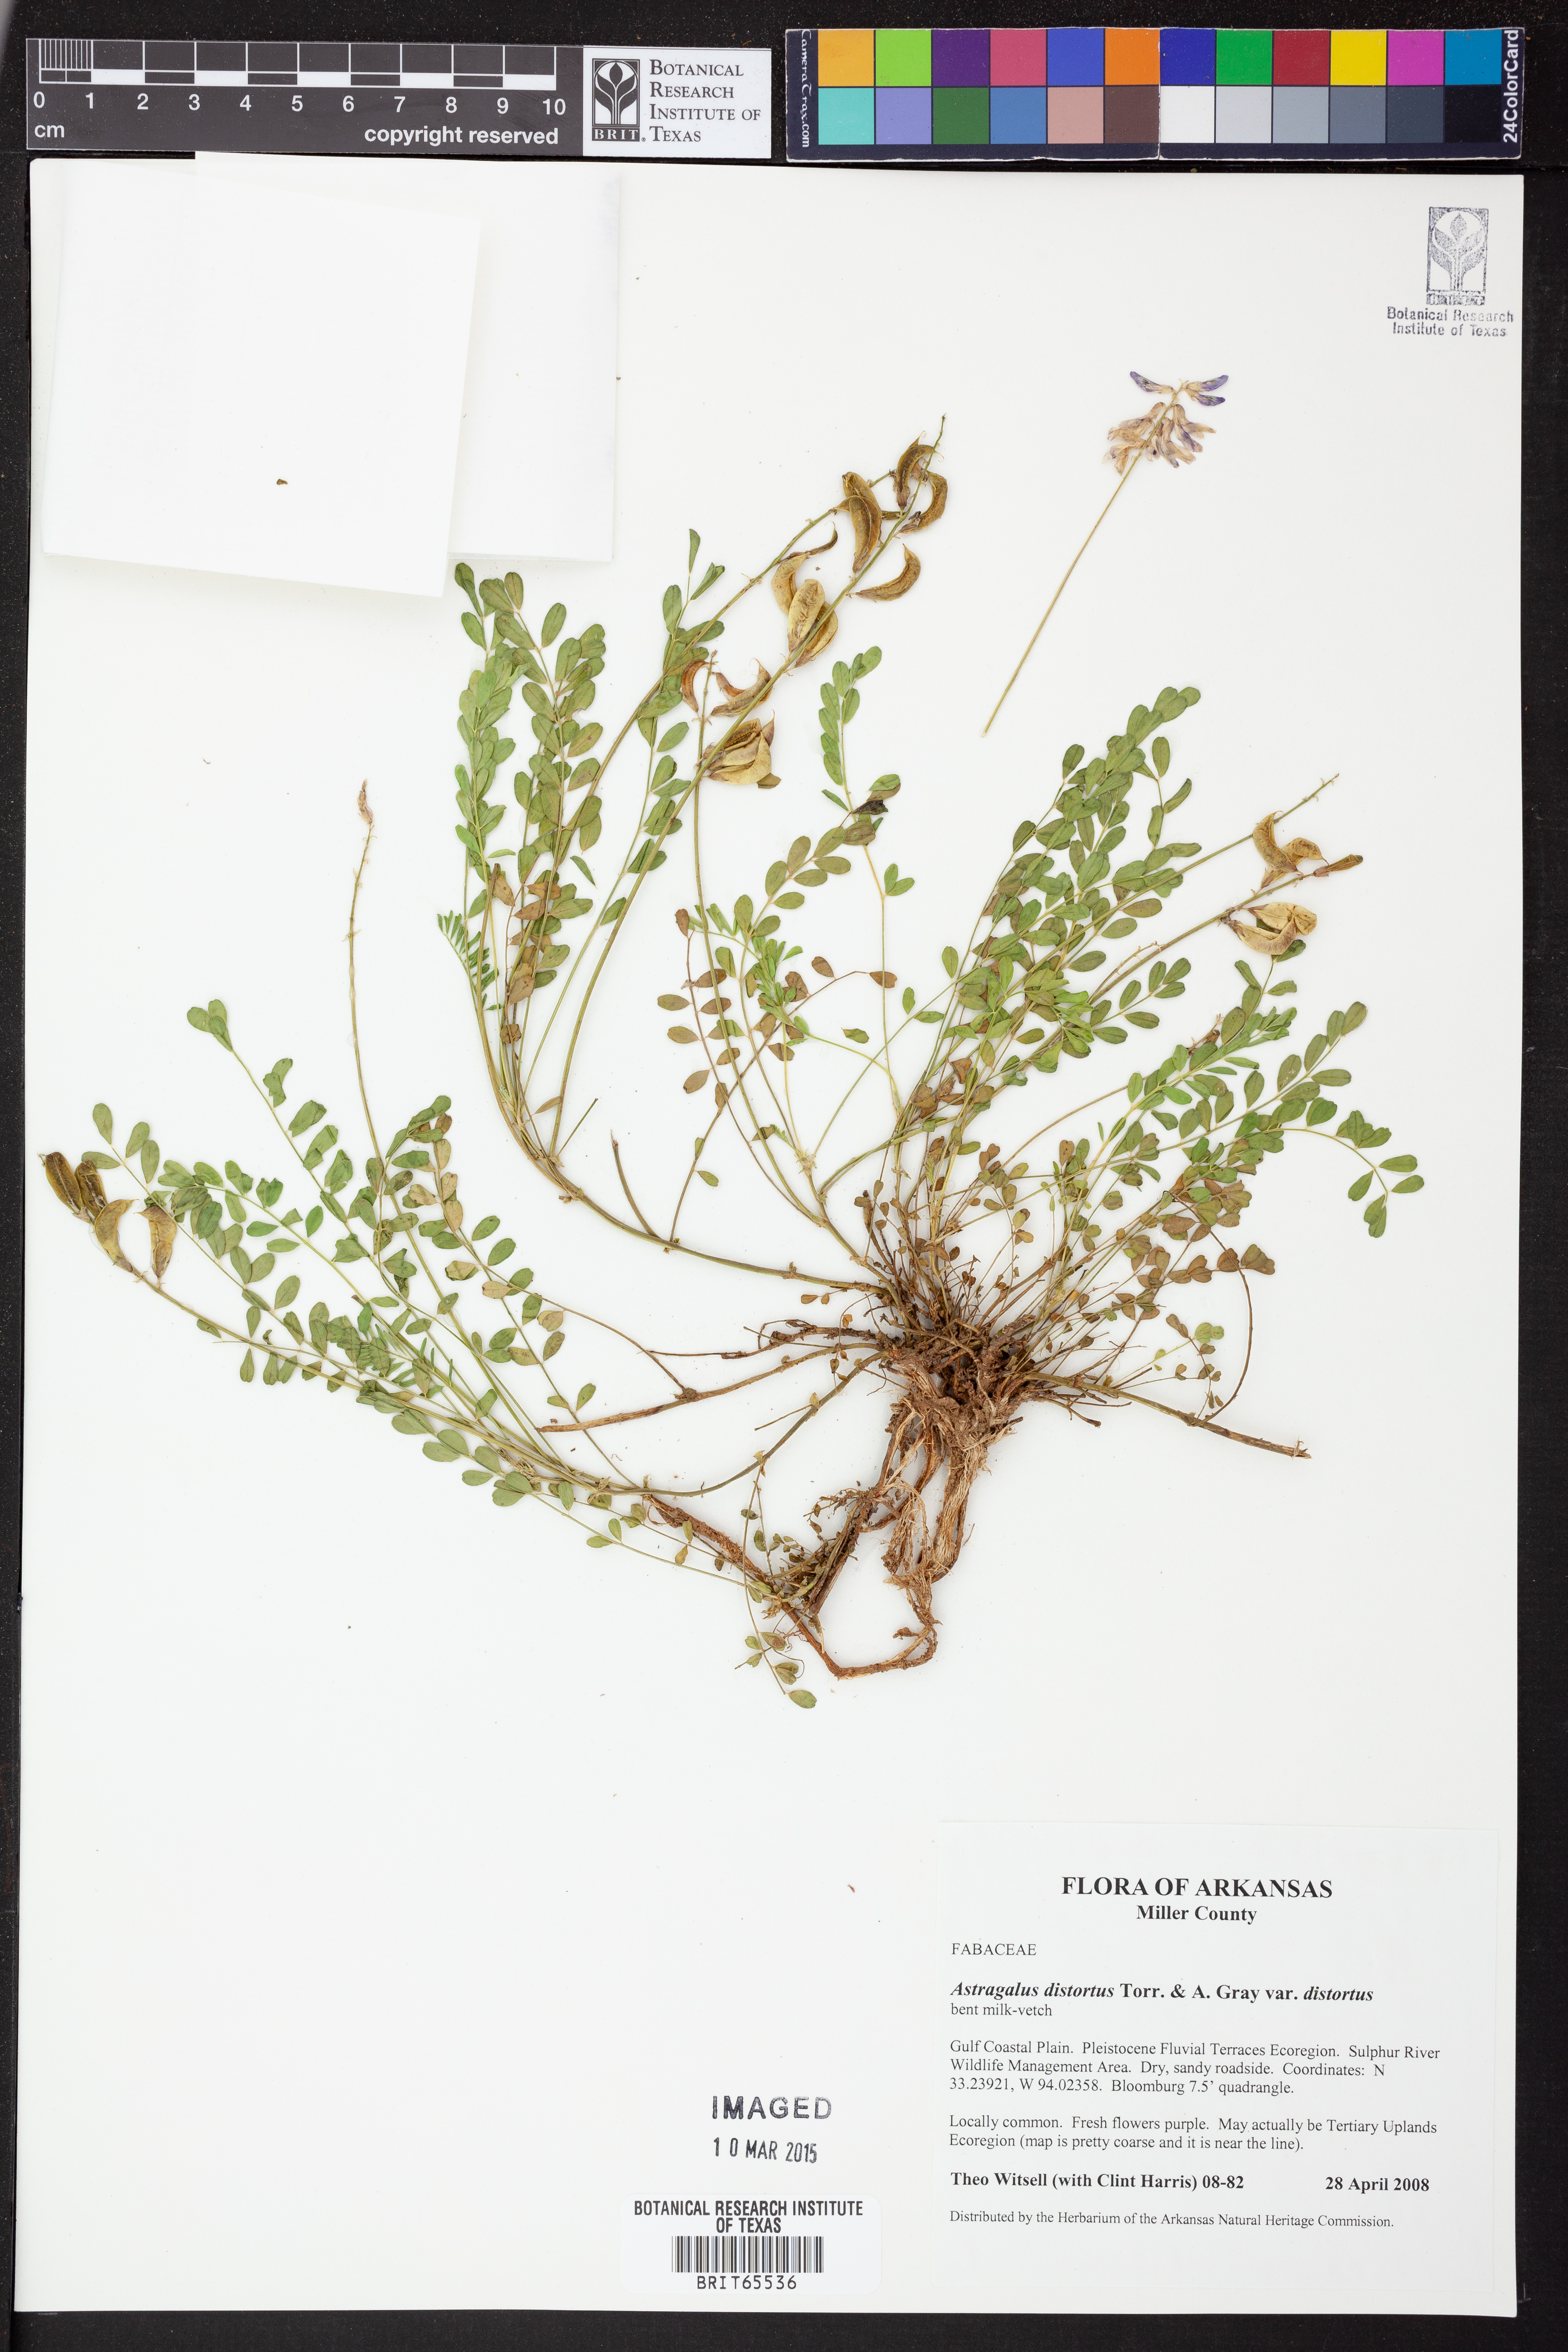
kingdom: Plantae
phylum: Tracheophyta
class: Magnoliopsida
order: Fabales
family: Fabaceae
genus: Astragalus
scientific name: Astragalus distortus
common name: Ozark milk-vetch
